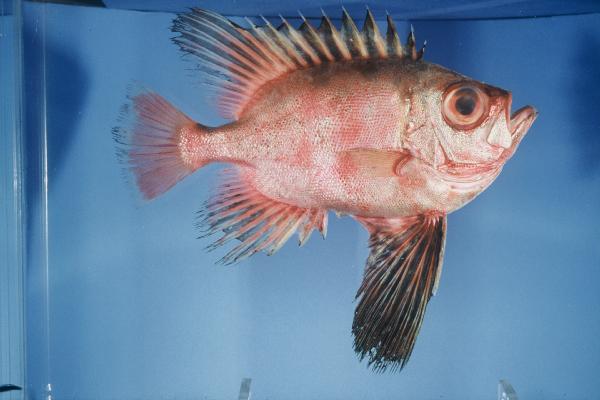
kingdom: Animalia
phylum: Chordata
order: Perciformes
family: Priacanthidae
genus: Cookeolus
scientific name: Cookeolus japonicus
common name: Bulleye
